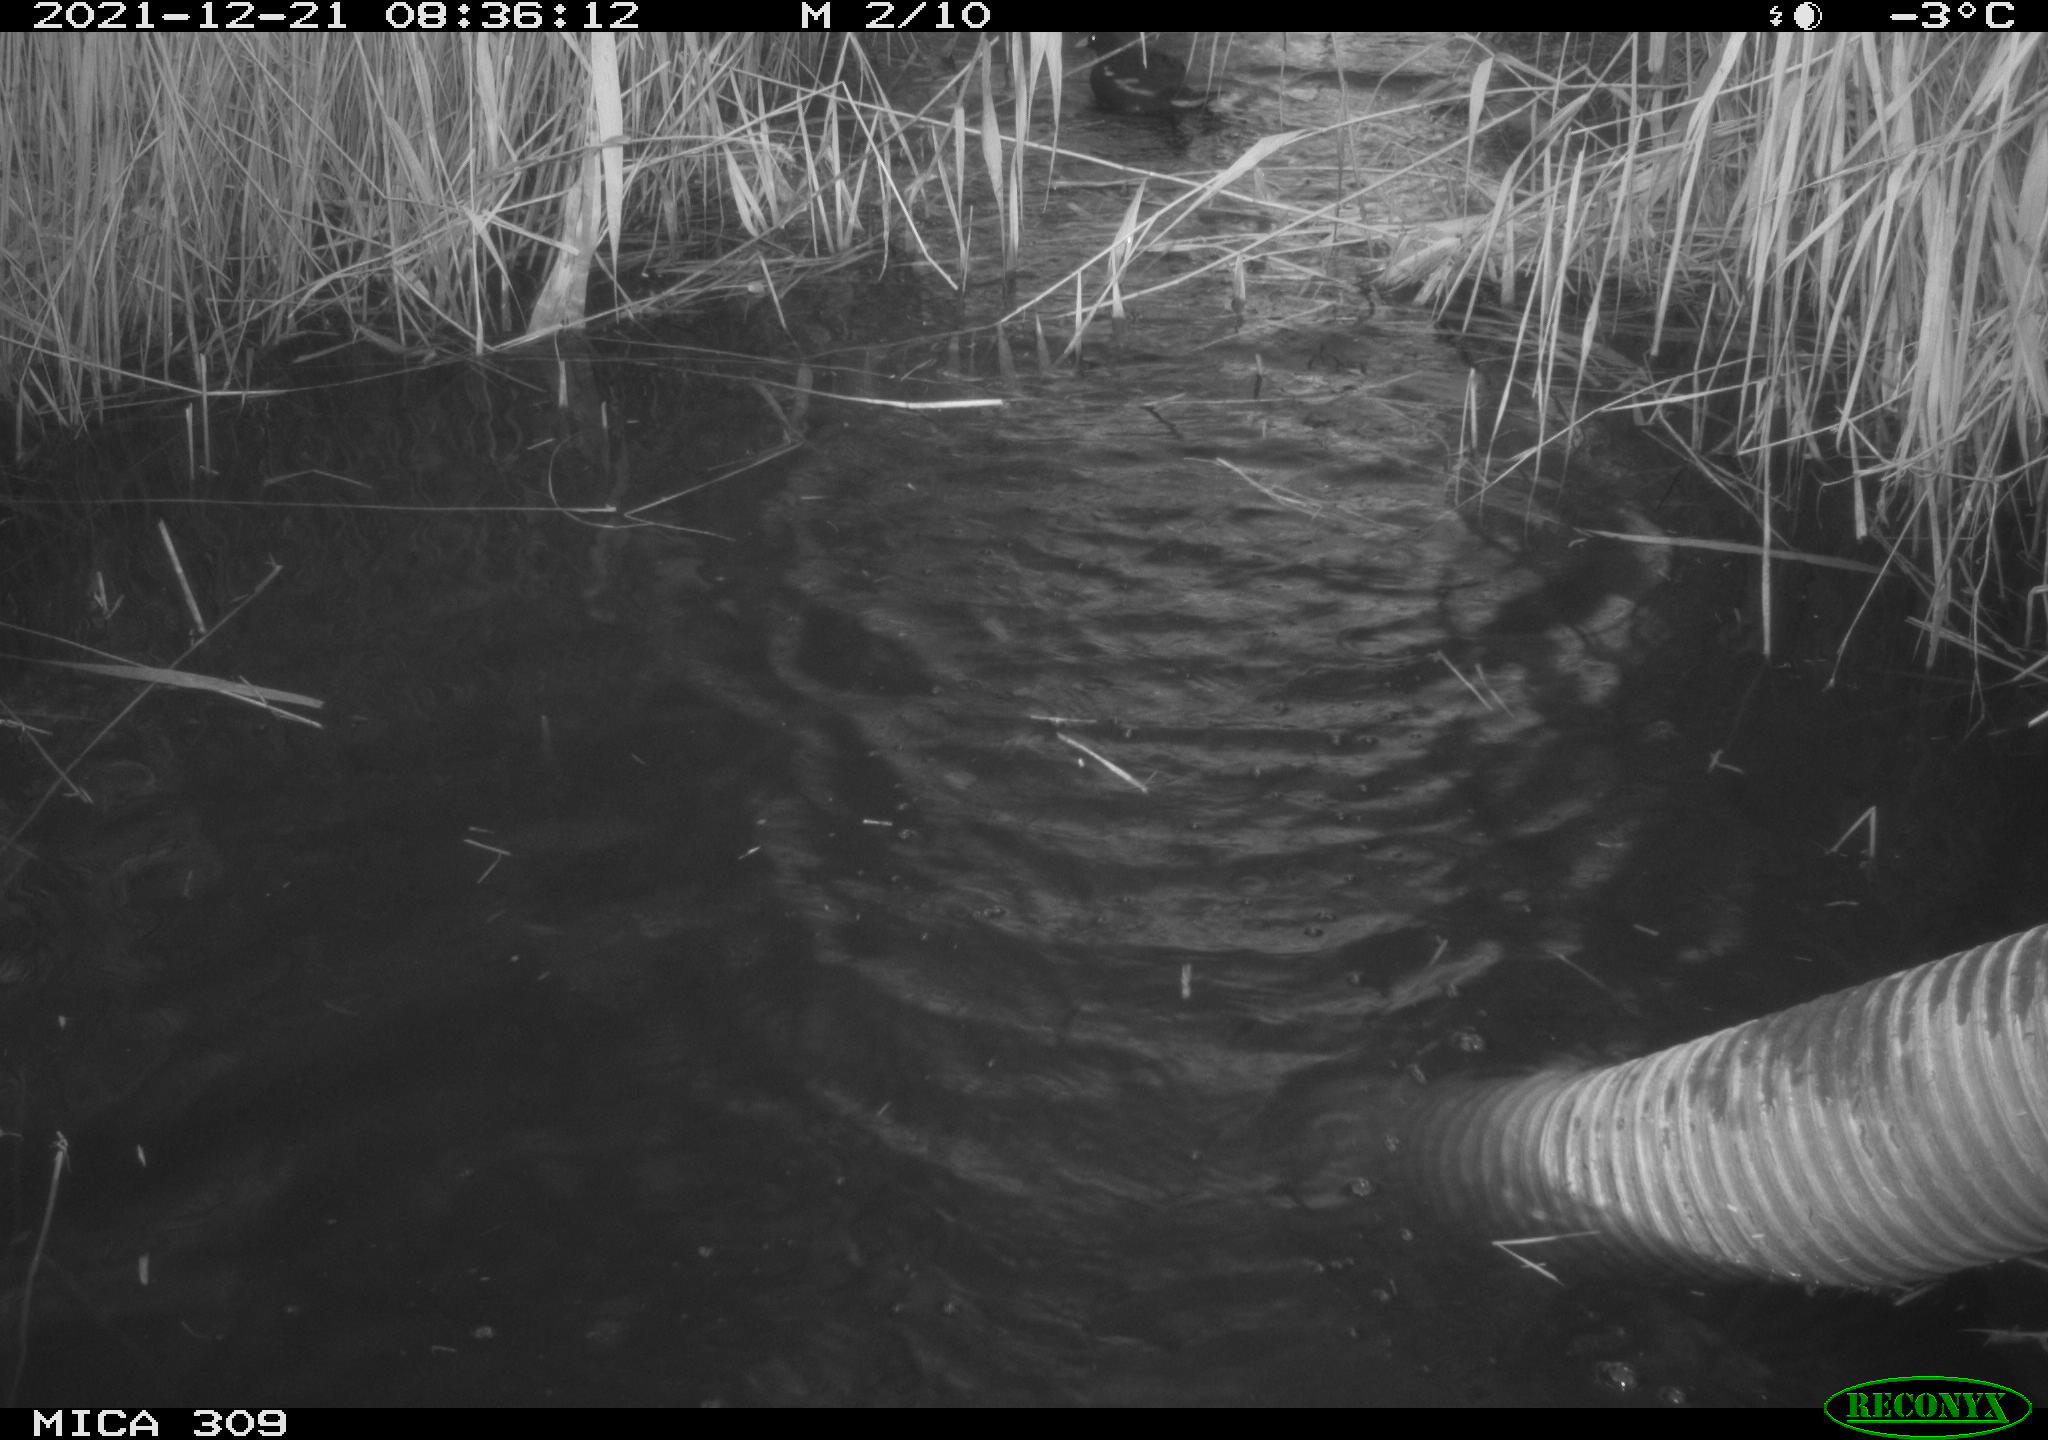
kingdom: Animalia
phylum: Chordata
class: Aves
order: Gruiformes
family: Rallidae
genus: Gallinula
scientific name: Gallinula chloropus
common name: Common moorhen
